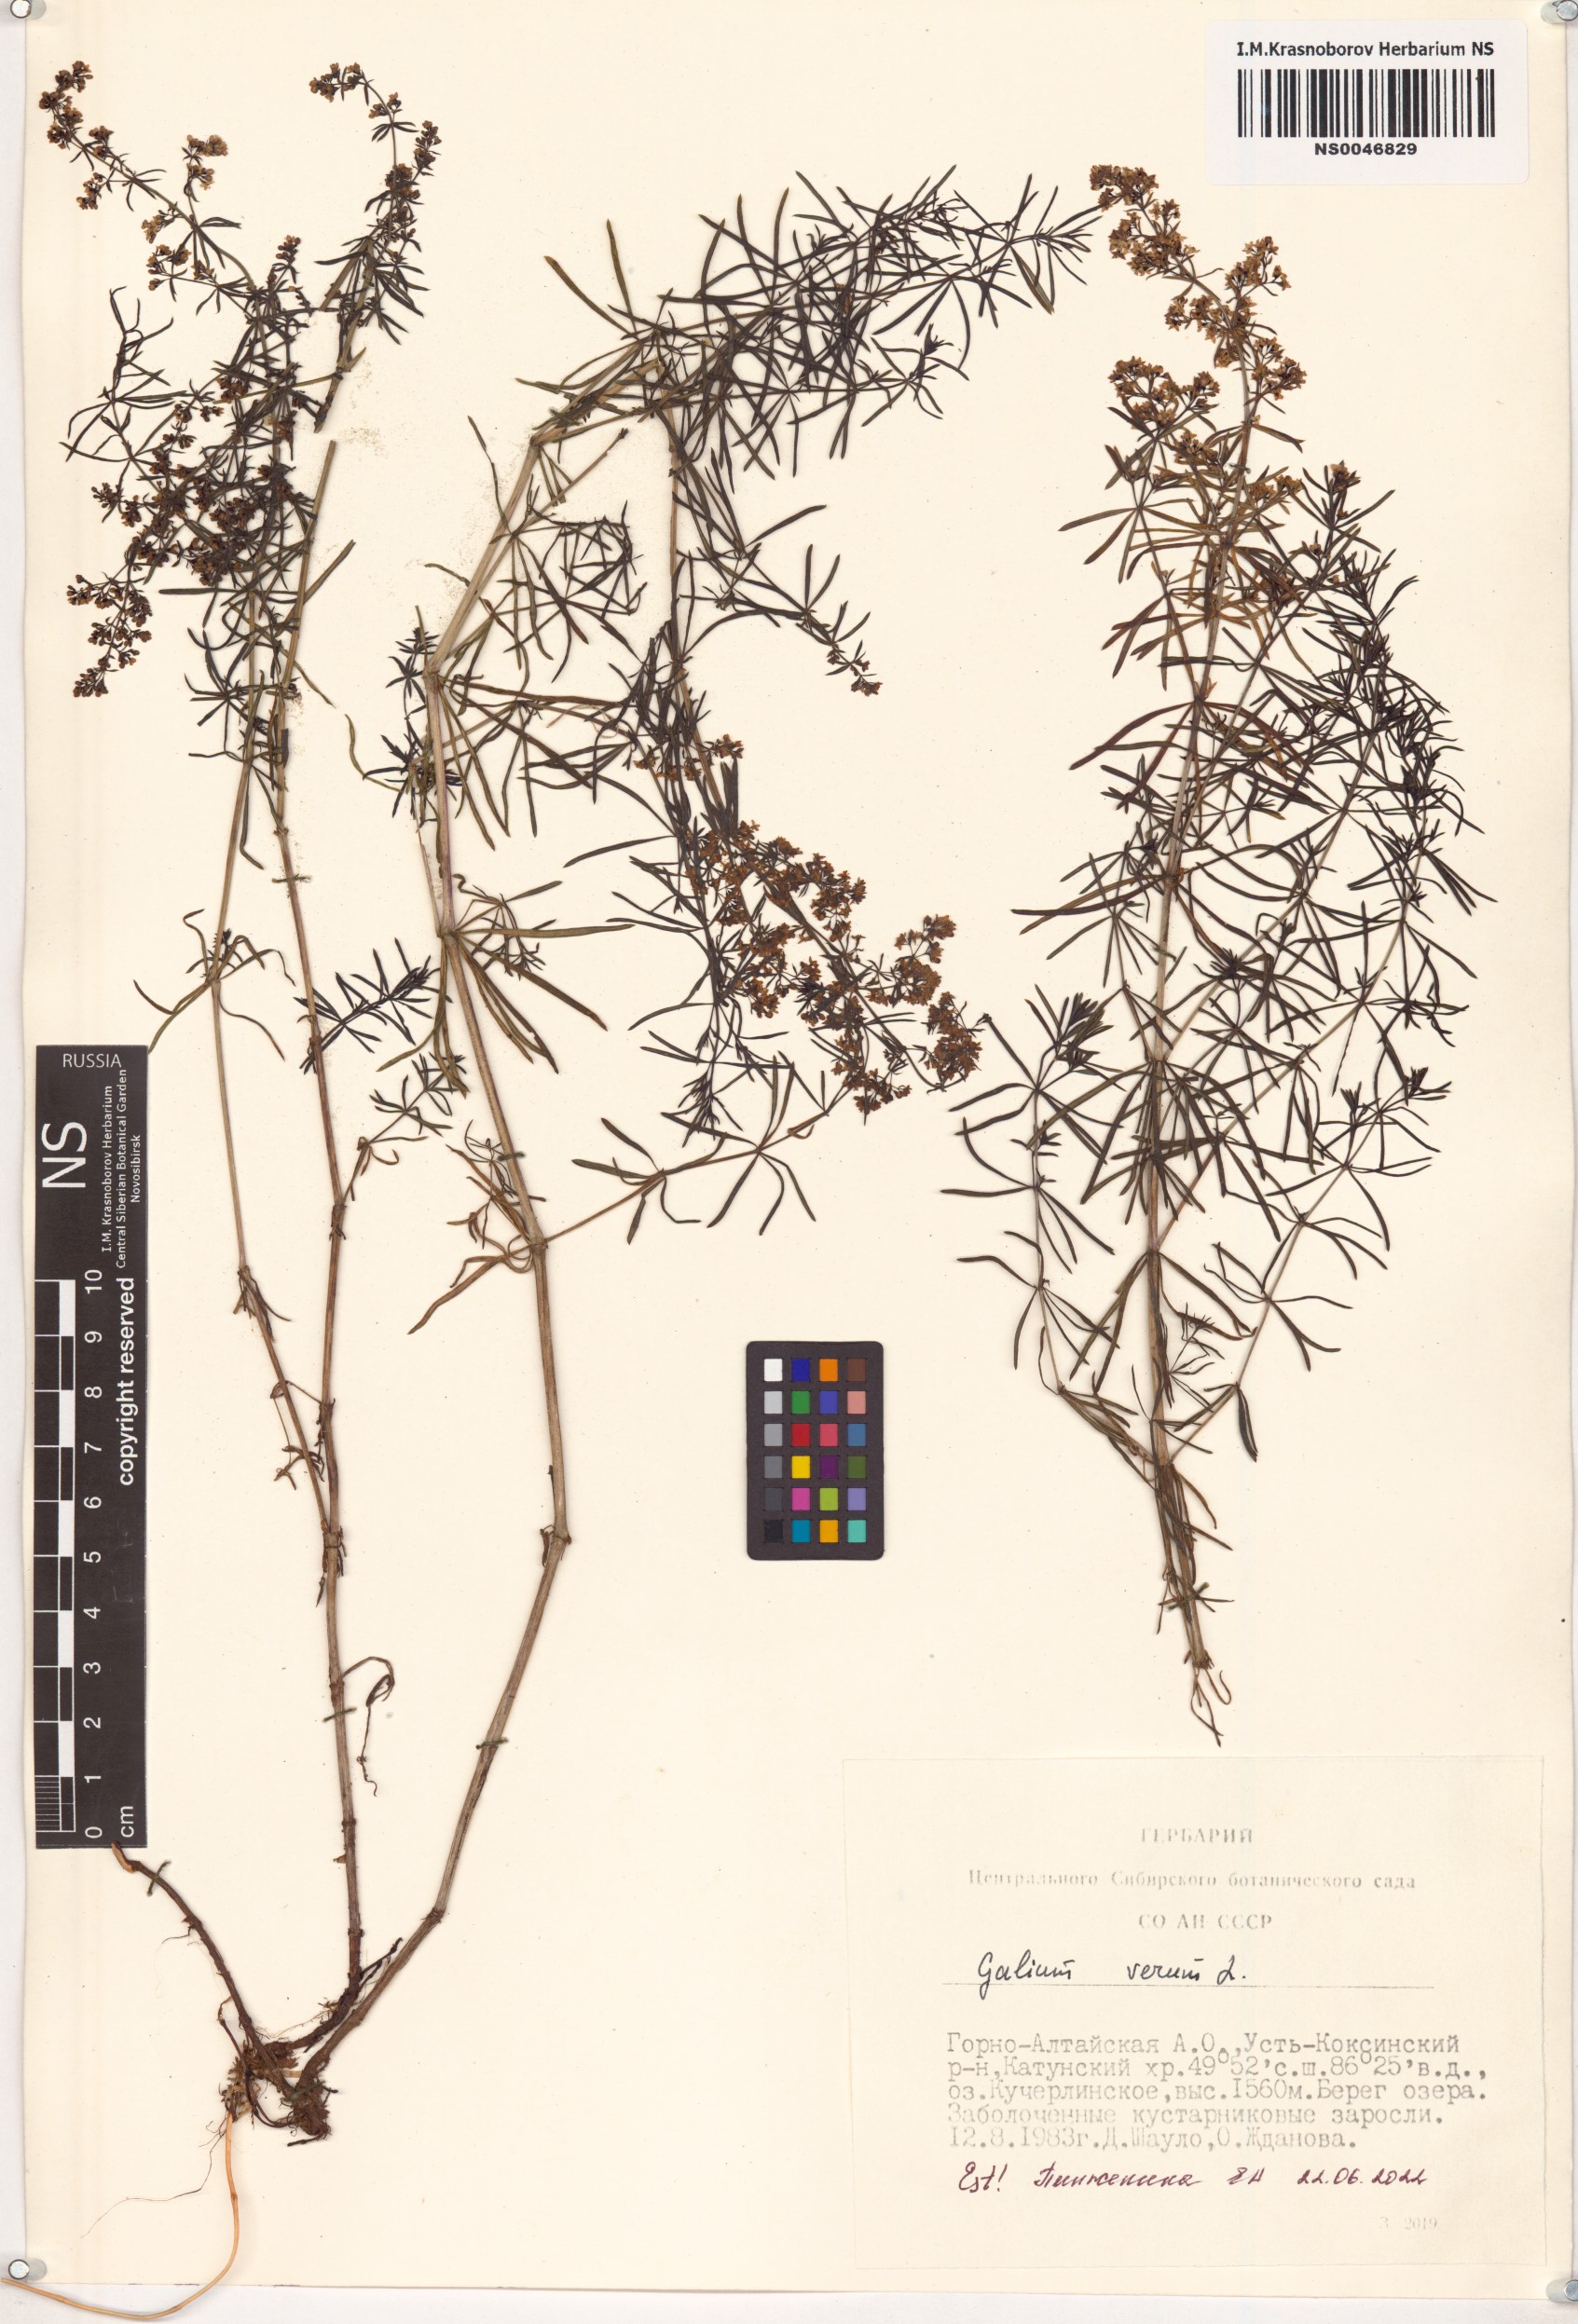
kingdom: Plantae
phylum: Tracheophyta
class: Magnoliopsida
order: Gentianales
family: Rubiaceae
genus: Galium
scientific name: Galium verum
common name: Lady's bedstraw
